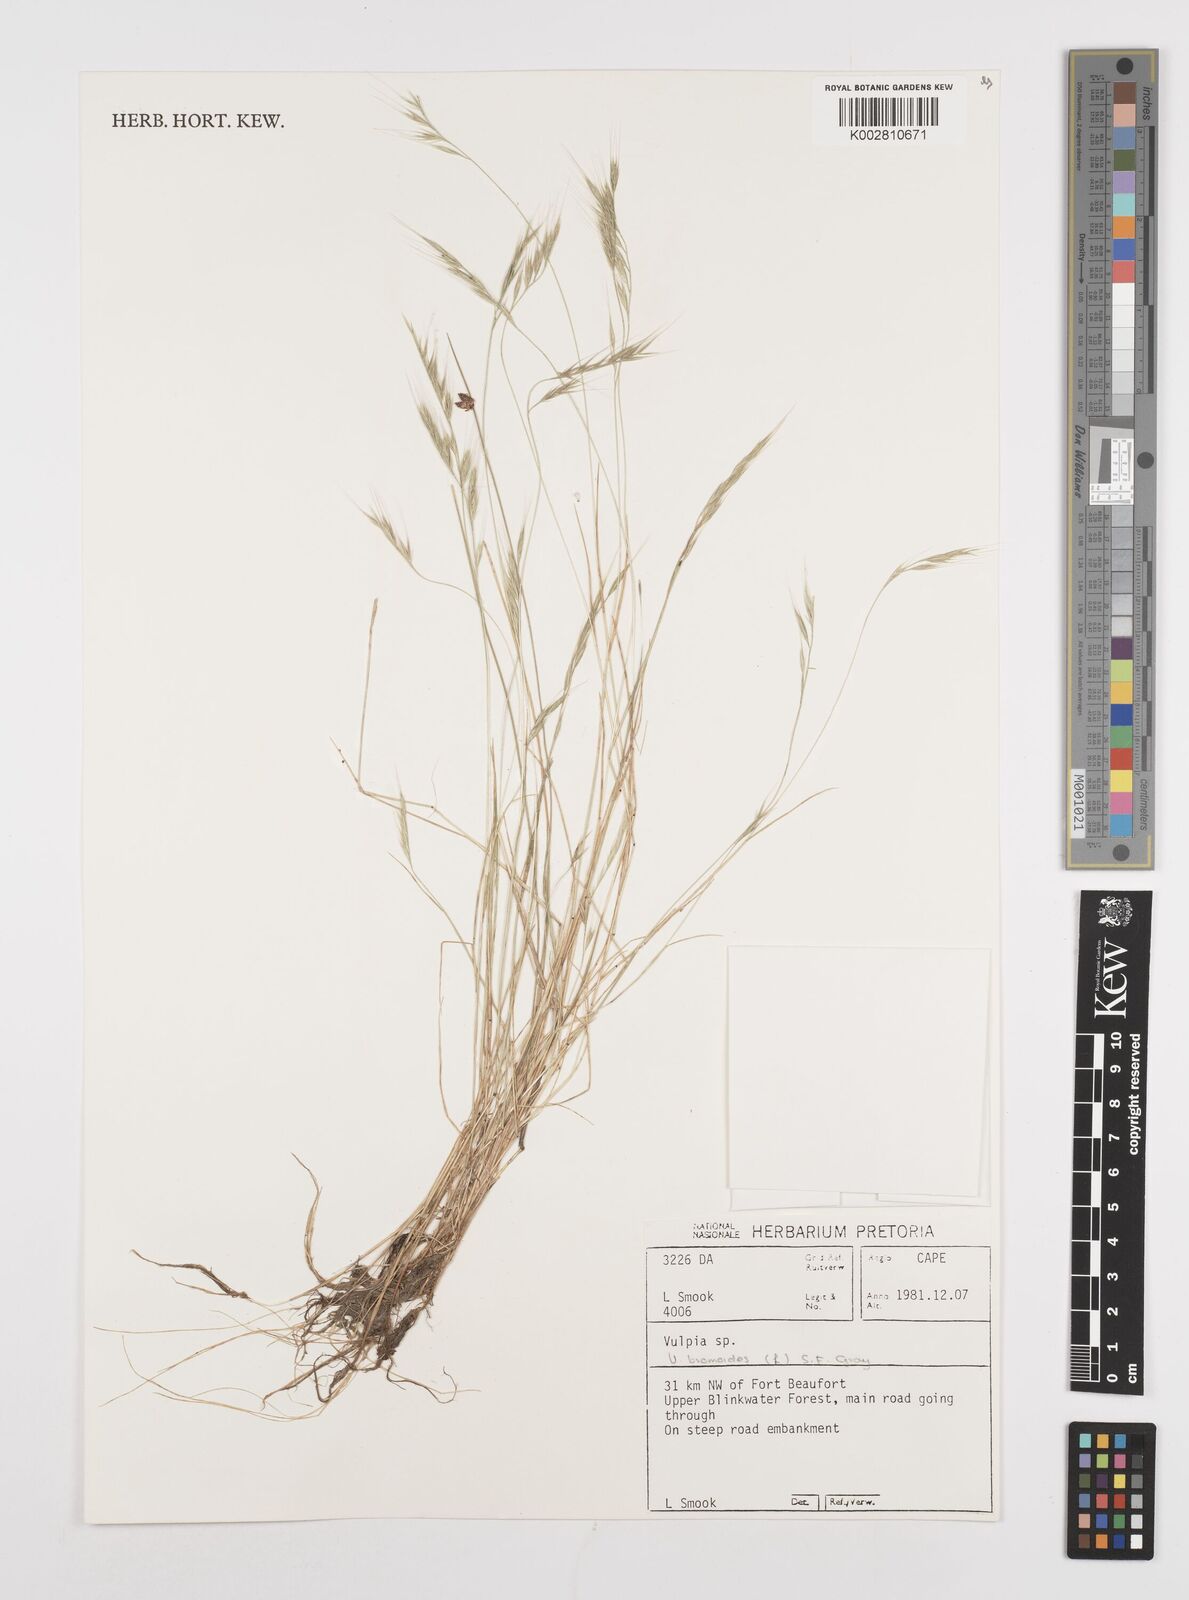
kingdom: Plantae
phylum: Tracheophyta
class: Liliopsida
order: Poales
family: Poaceae
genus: Festuca
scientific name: Festuca bromoides
